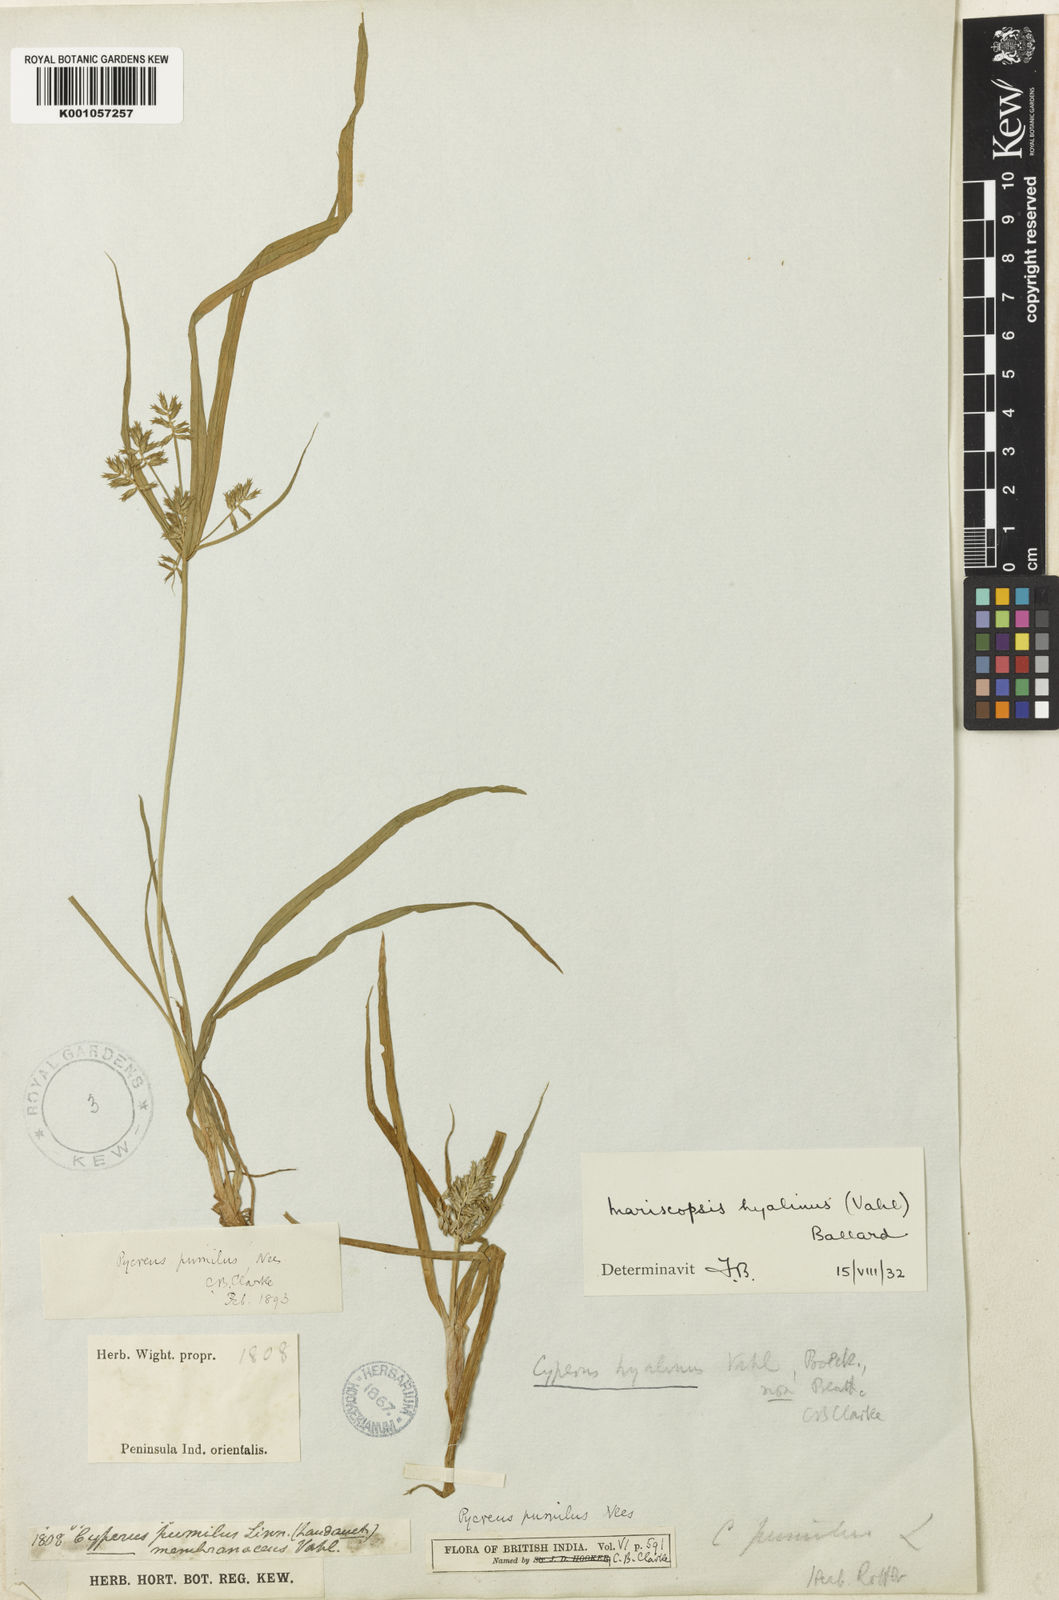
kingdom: Plantae
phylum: Tracheophyta
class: Liliopsida
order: Poales
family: Cyperaceae
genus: Cyperus
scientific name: Cyperus hyalinus
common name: Queensland sedge
